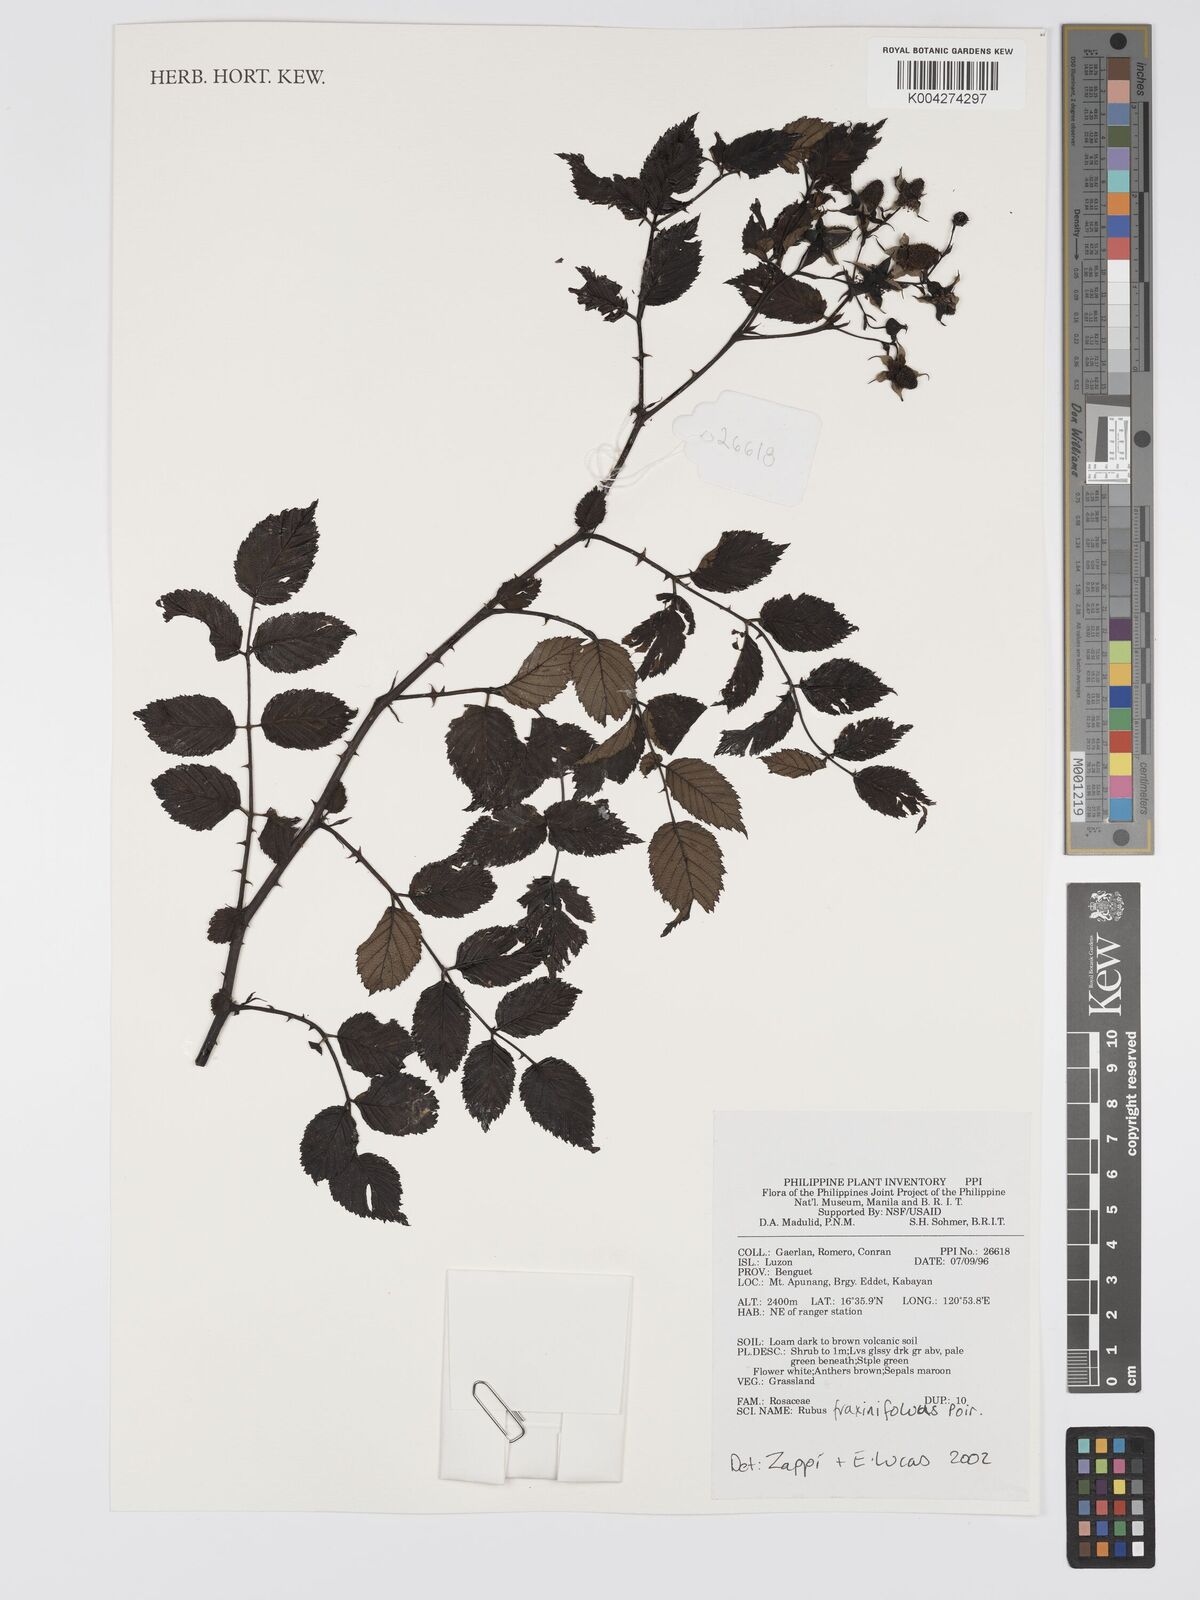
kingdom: Plantae
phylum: Tracheophyta
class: Magnoliopsida
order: Rosales
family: Rosaceae
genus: Rubus
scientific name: Rubus fraxinifolius
